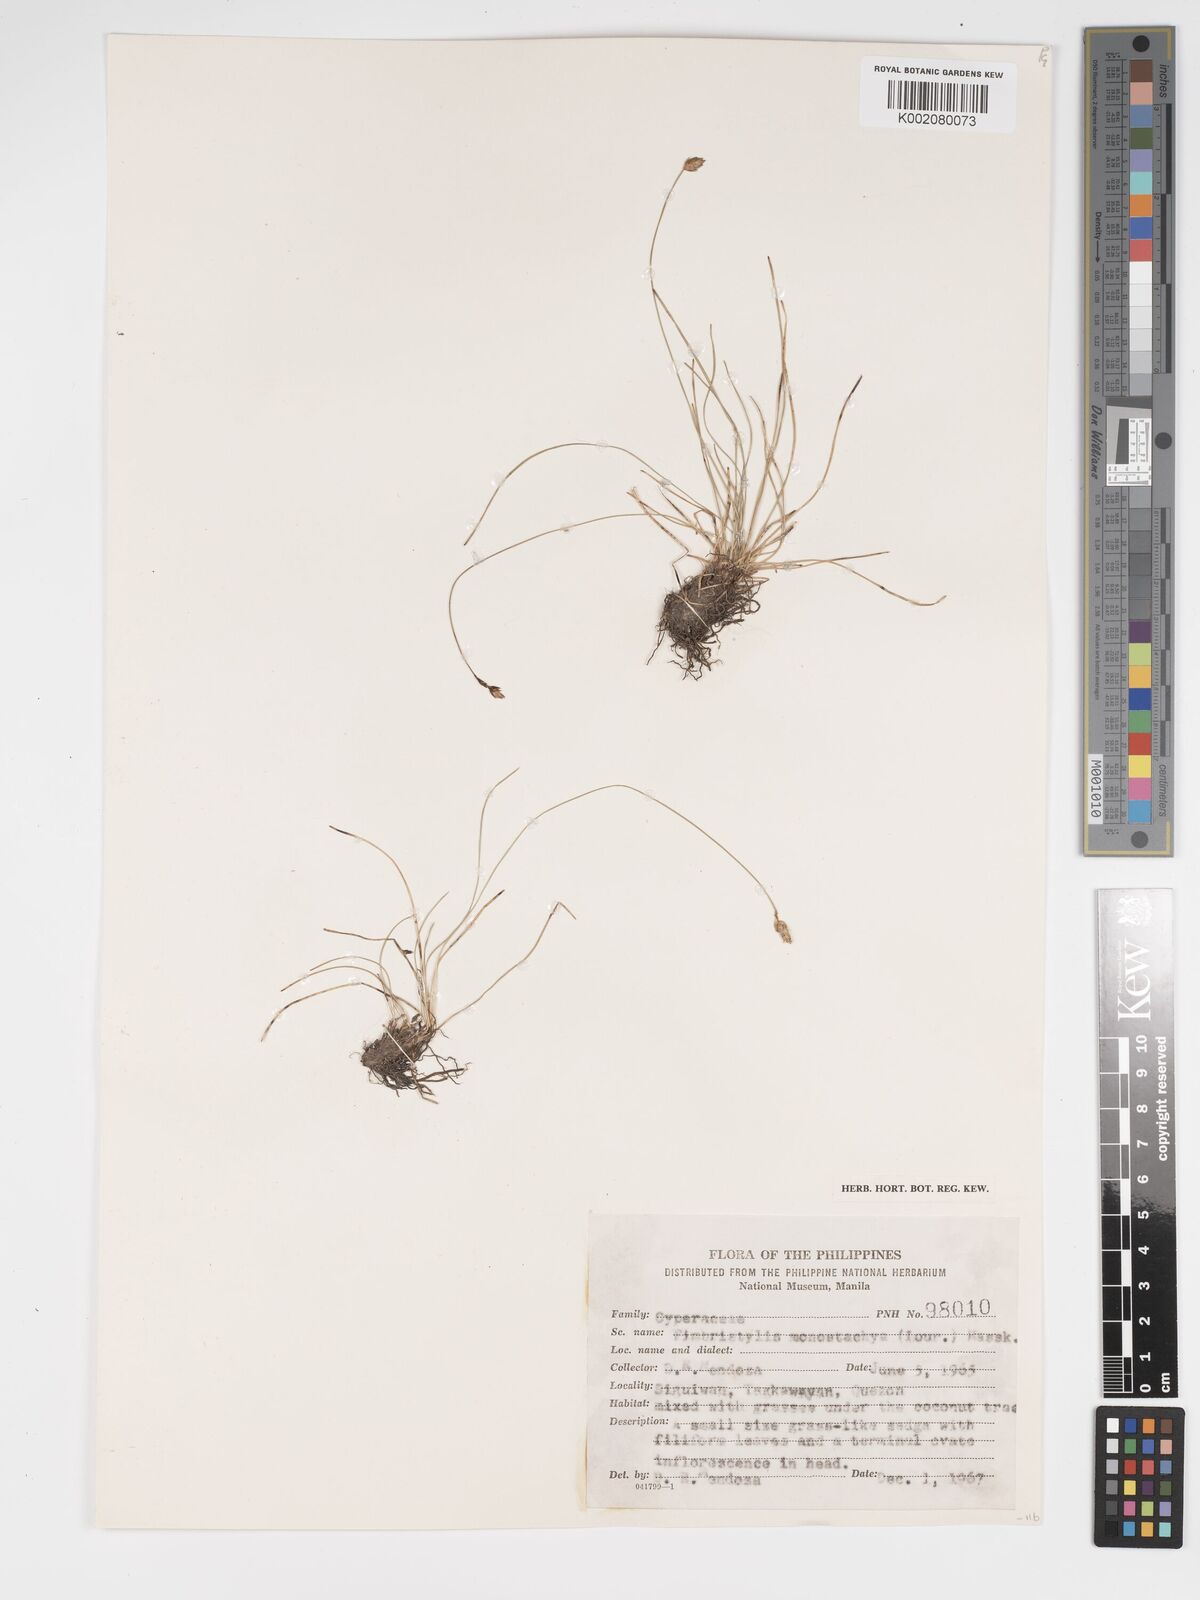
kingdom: Plantae
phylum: Tracheophyta
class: Liliopsida
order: Poales
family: Cyperaceae
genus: Abildgaardia
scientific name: Abildgaardia ovata
